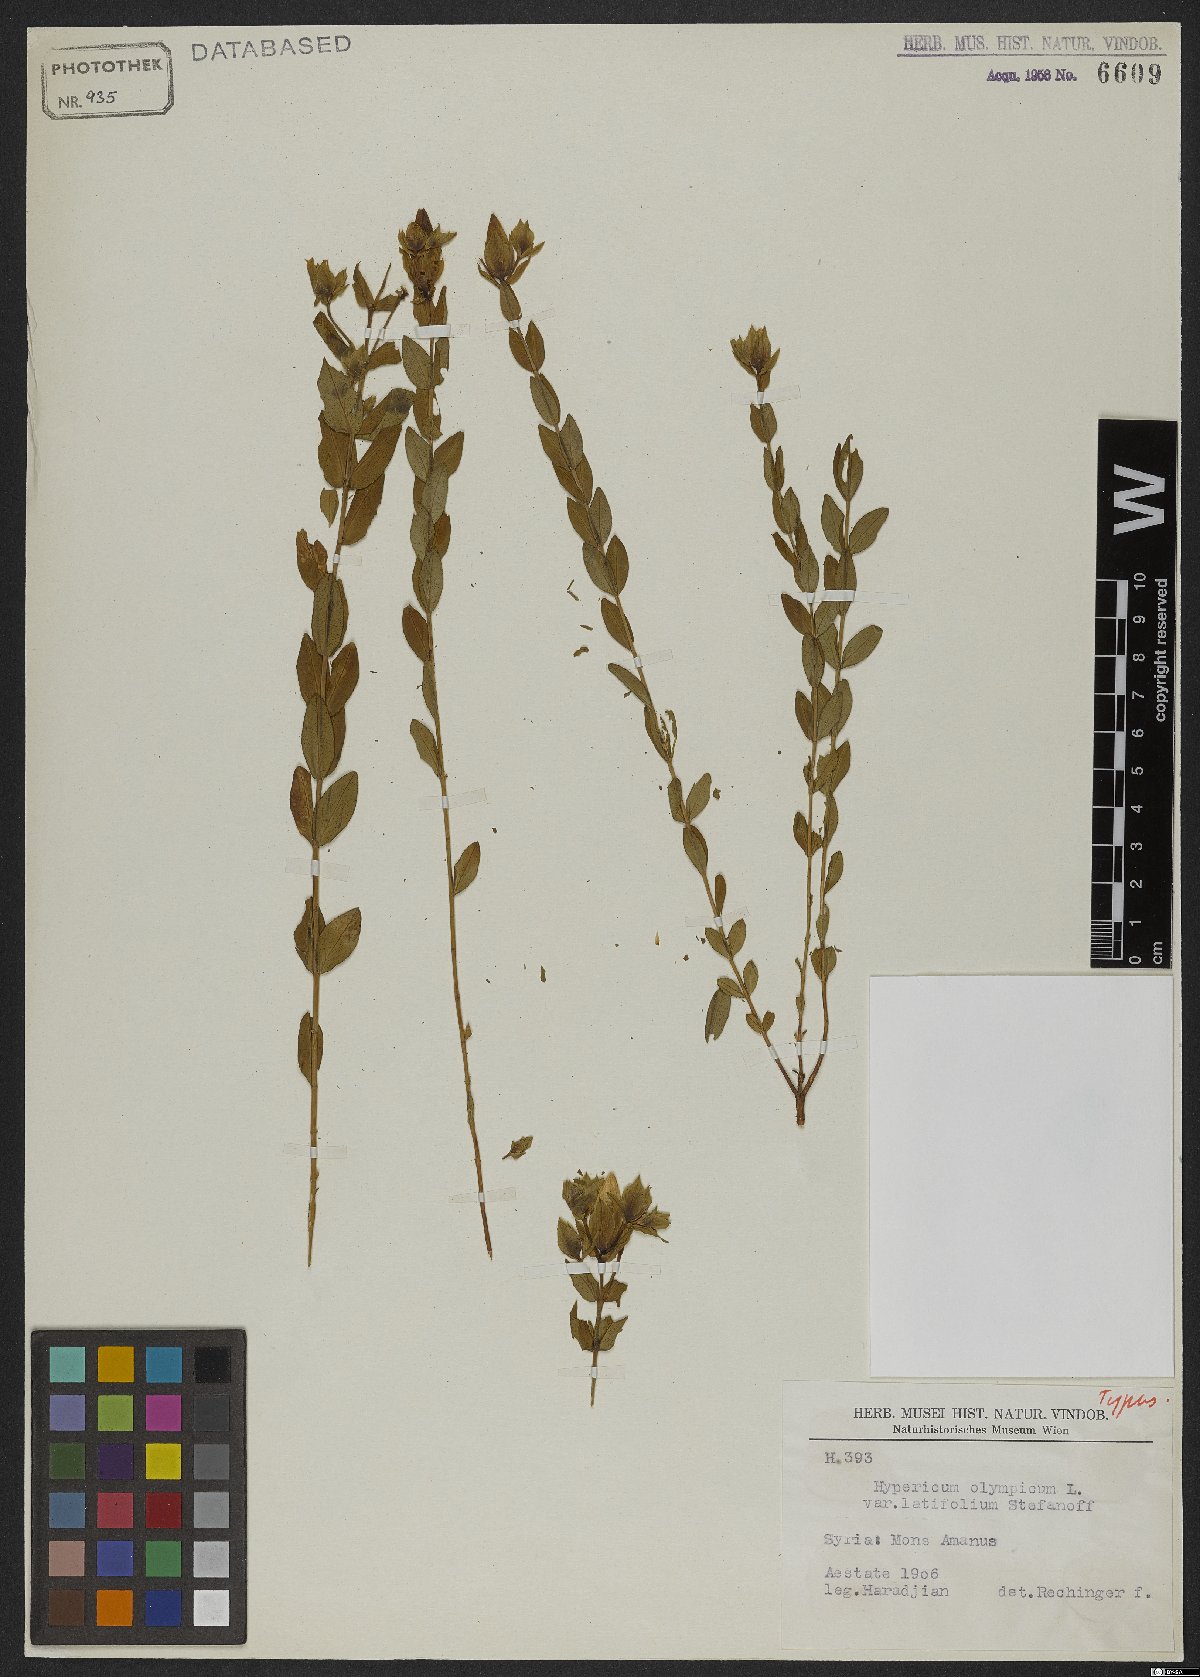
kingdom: Plantae
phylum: Tracheophyta
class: Magnoliopsida
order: Malpighiales
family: Hypericaceae
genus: Hypericum
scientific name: Hypericum olympicum
